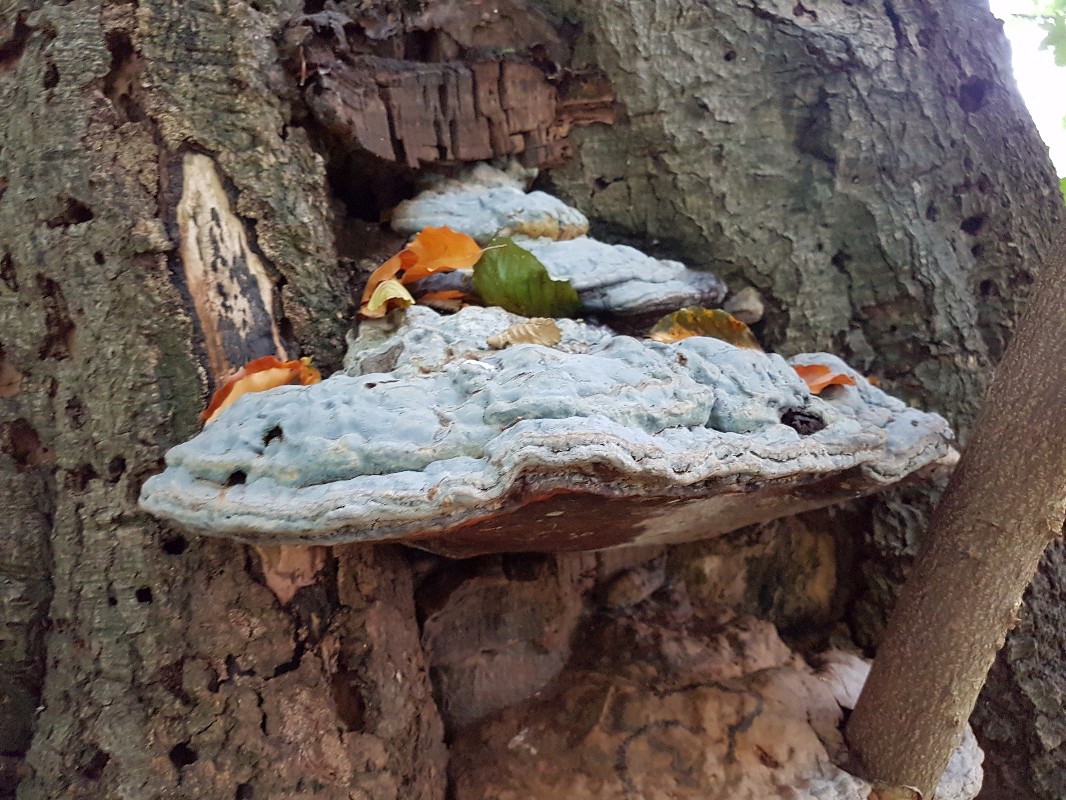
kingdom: Fungi
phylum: Basidiomycota
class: Agaricomycetes
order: Polyporales
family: Polyporaceae
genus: Ganoderma
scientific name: Ganoderma pfeifferi
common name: kobberrød lakporesvamp
